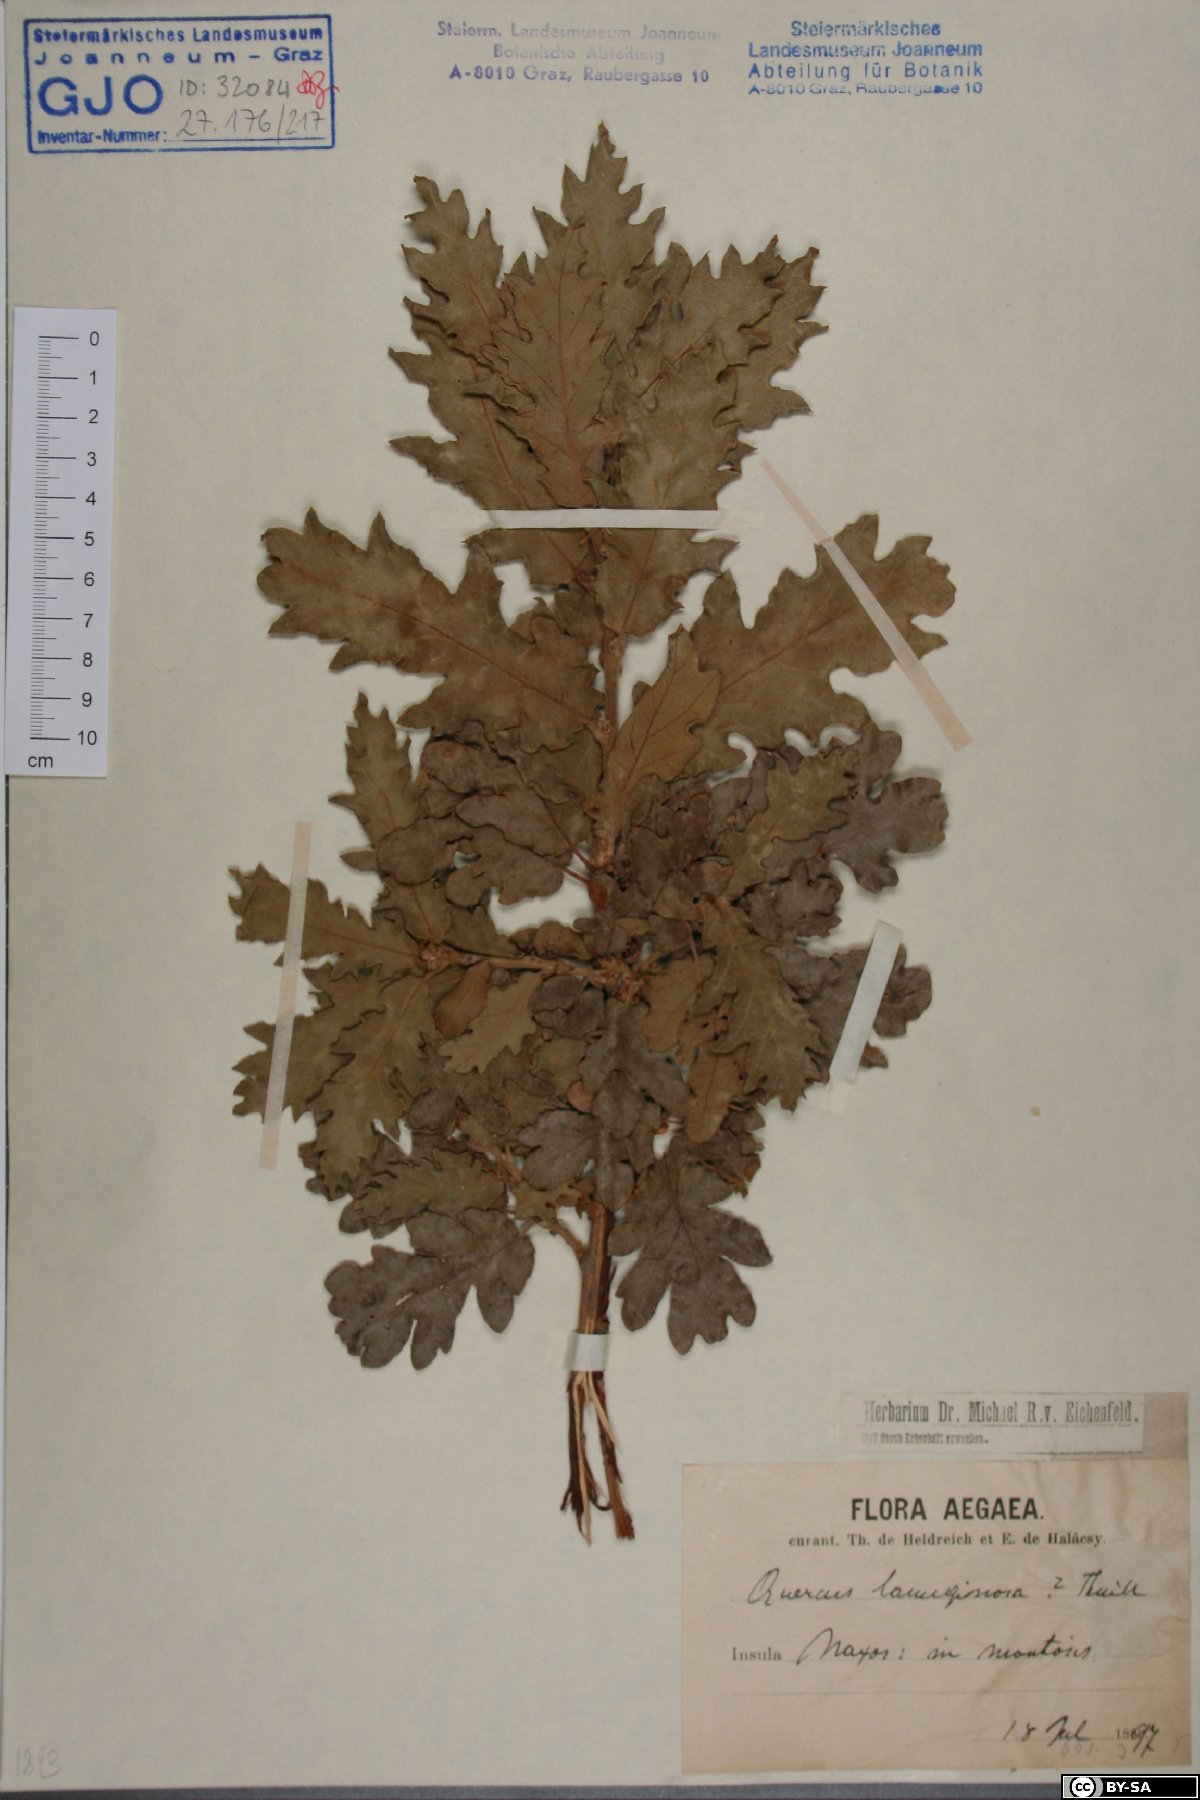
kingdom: Plantae
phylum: Tracheophyta
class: Magnoliopsida
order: Fagales
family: Fagaceae
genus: Quercus
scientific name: Quercus pubescens
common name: Downy oak
